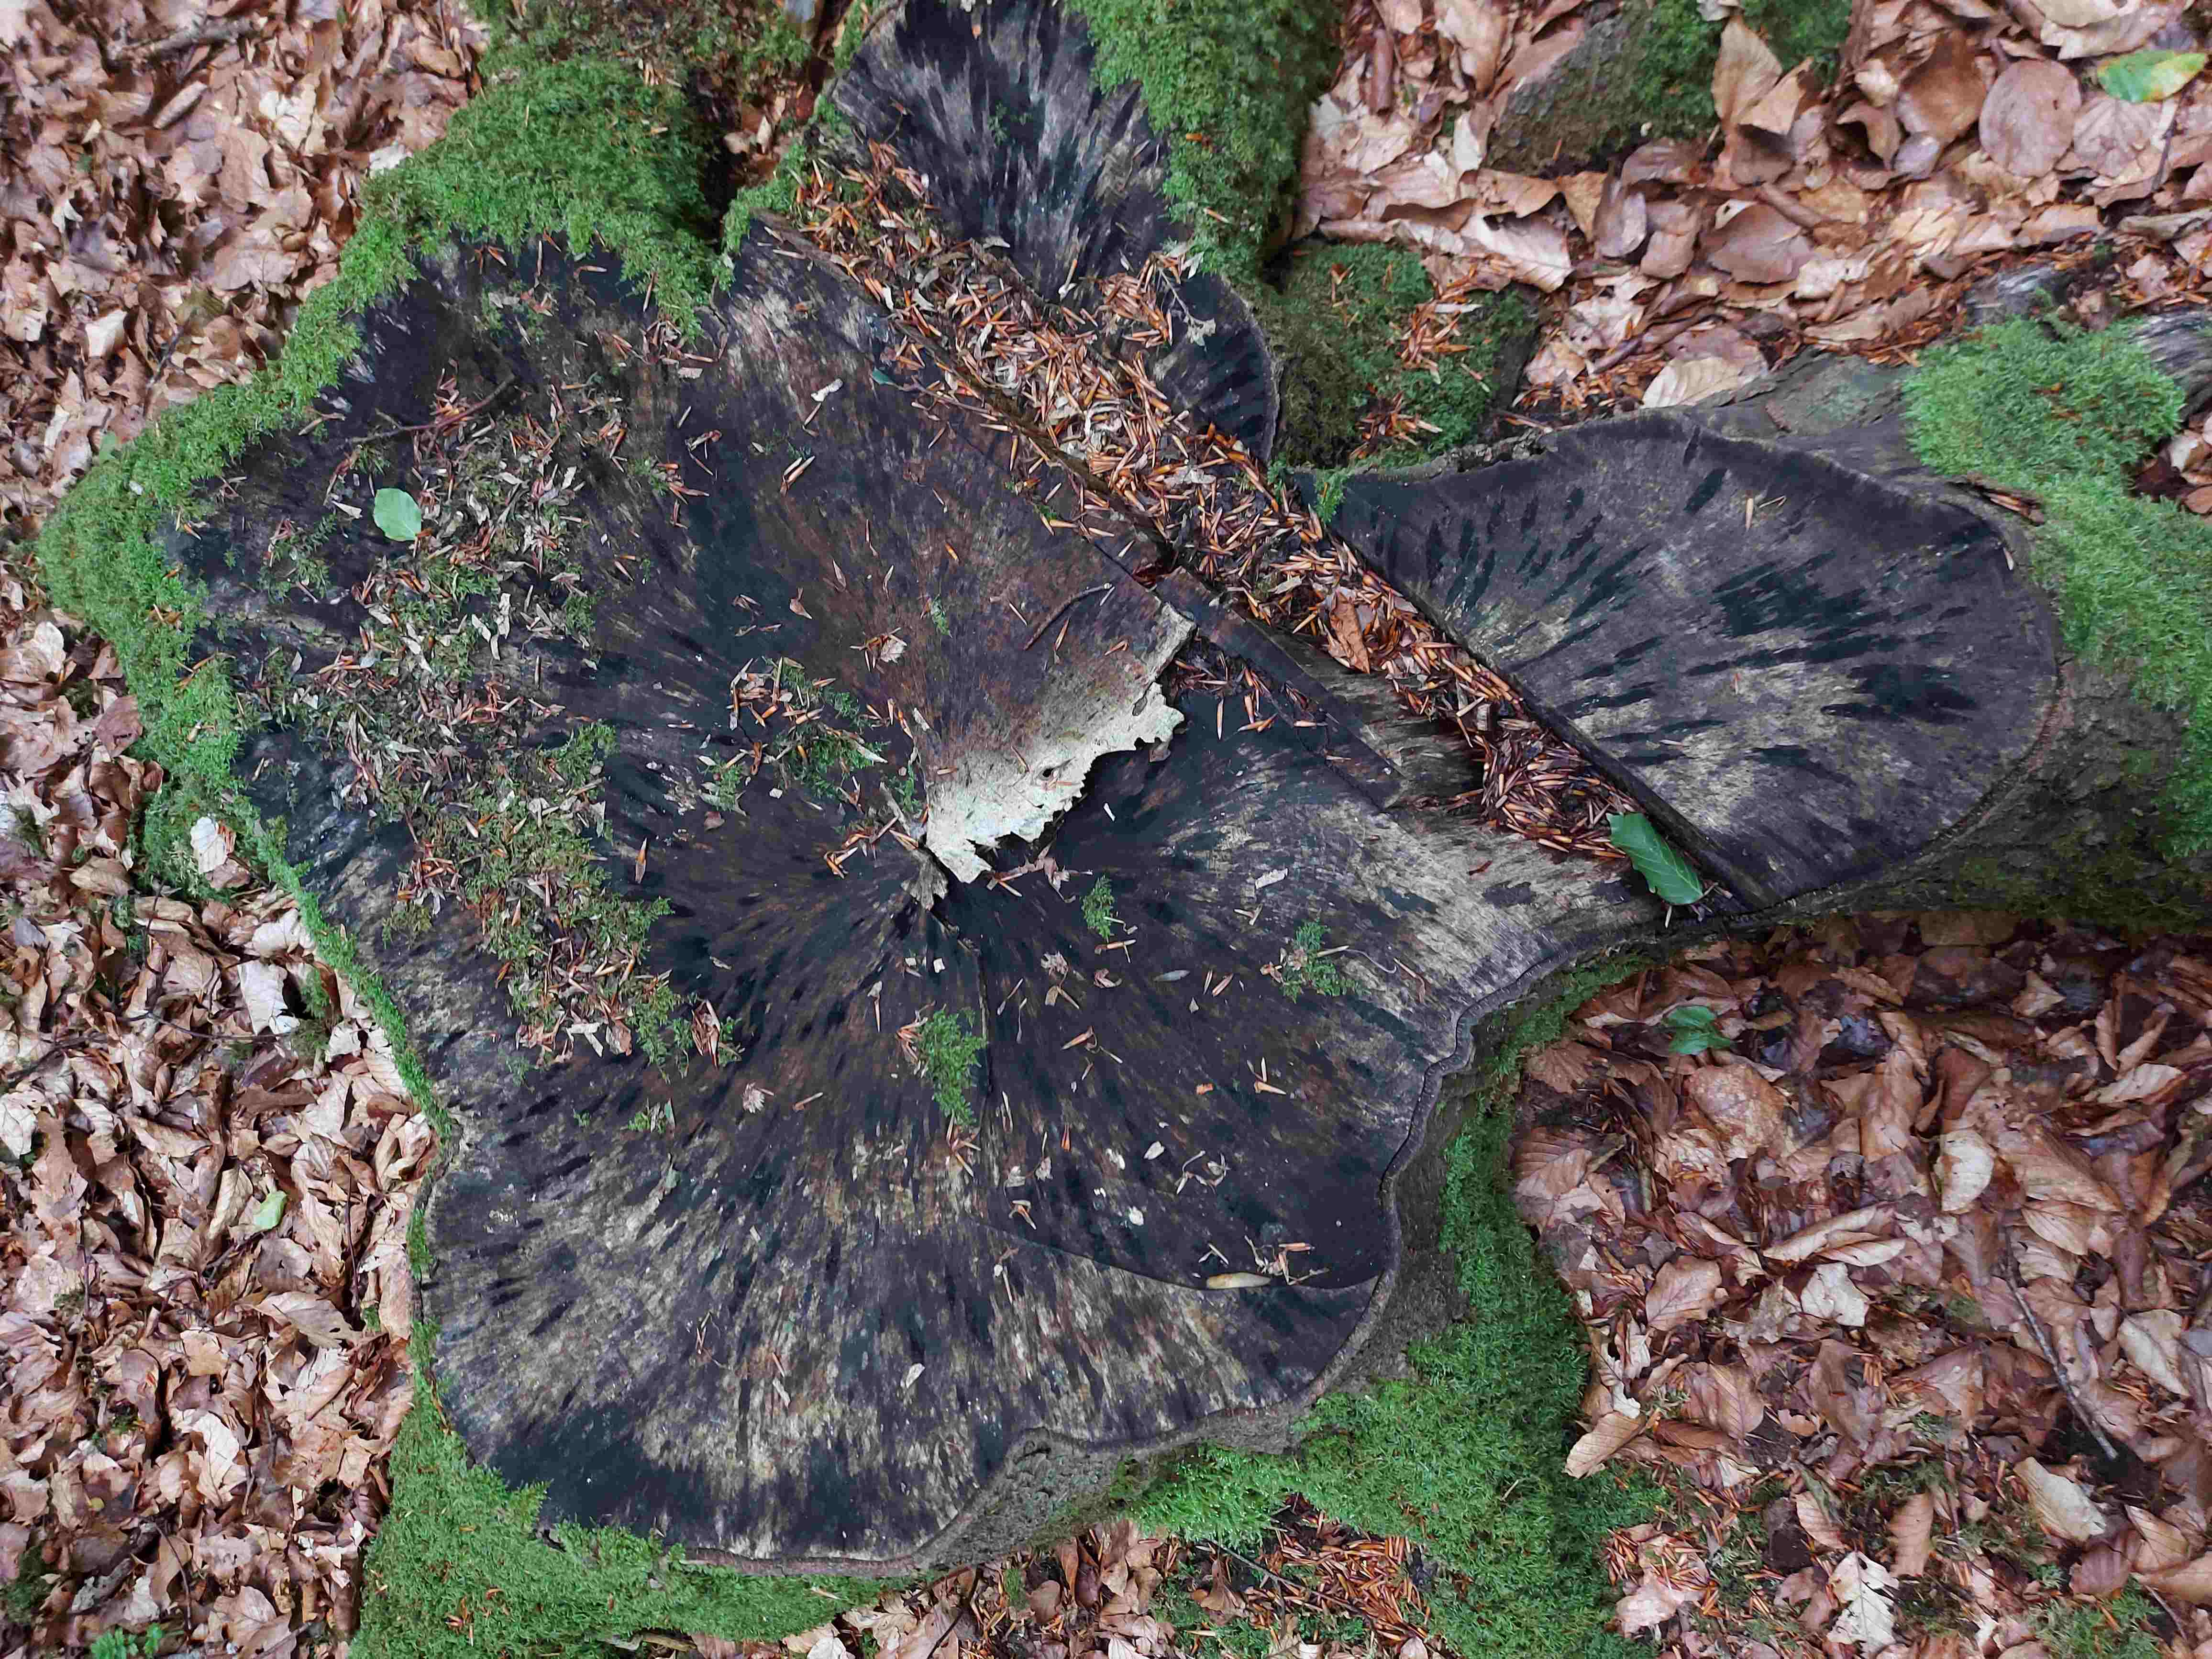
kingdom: Fungi
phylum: Ascomycota
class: Leotiomycetes
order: Helotiales
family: Helotiaceae
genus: Bispora
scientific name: Bispora pallescens
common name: måtte-snitskive
